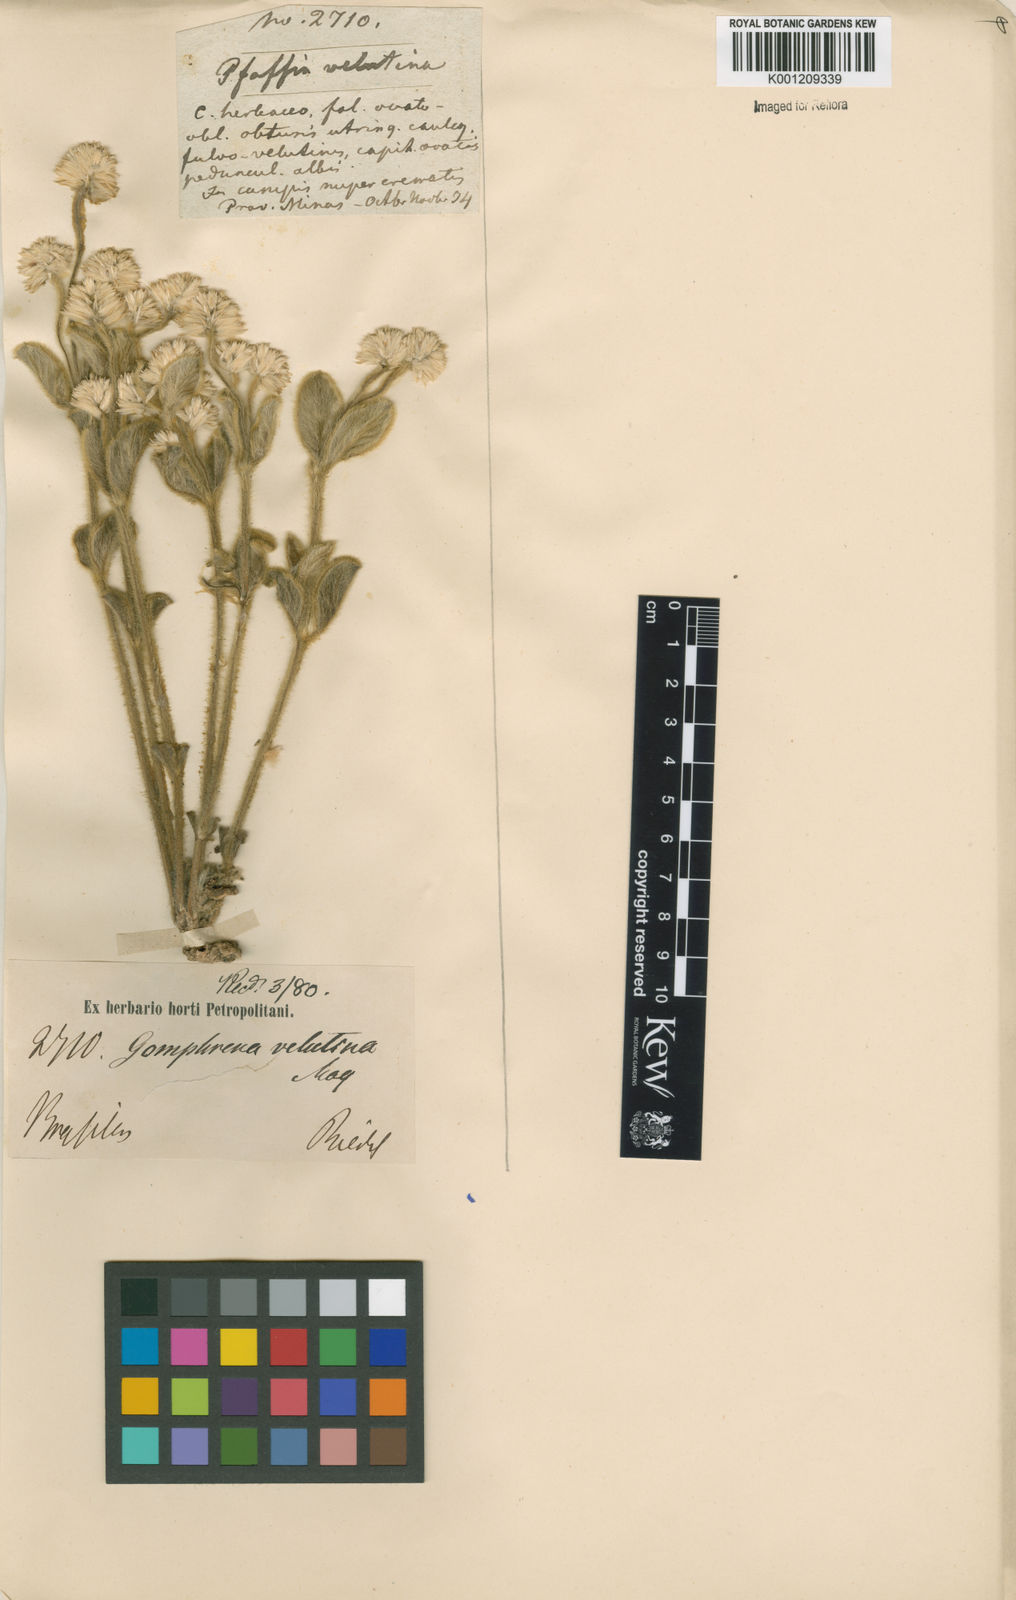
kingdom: Plantae
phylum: Tracheophyta
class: Magnoliopsida
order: Caryophyllales
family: Amaranthaceae
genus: Pfaffia
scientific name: Pfaffia velutina
